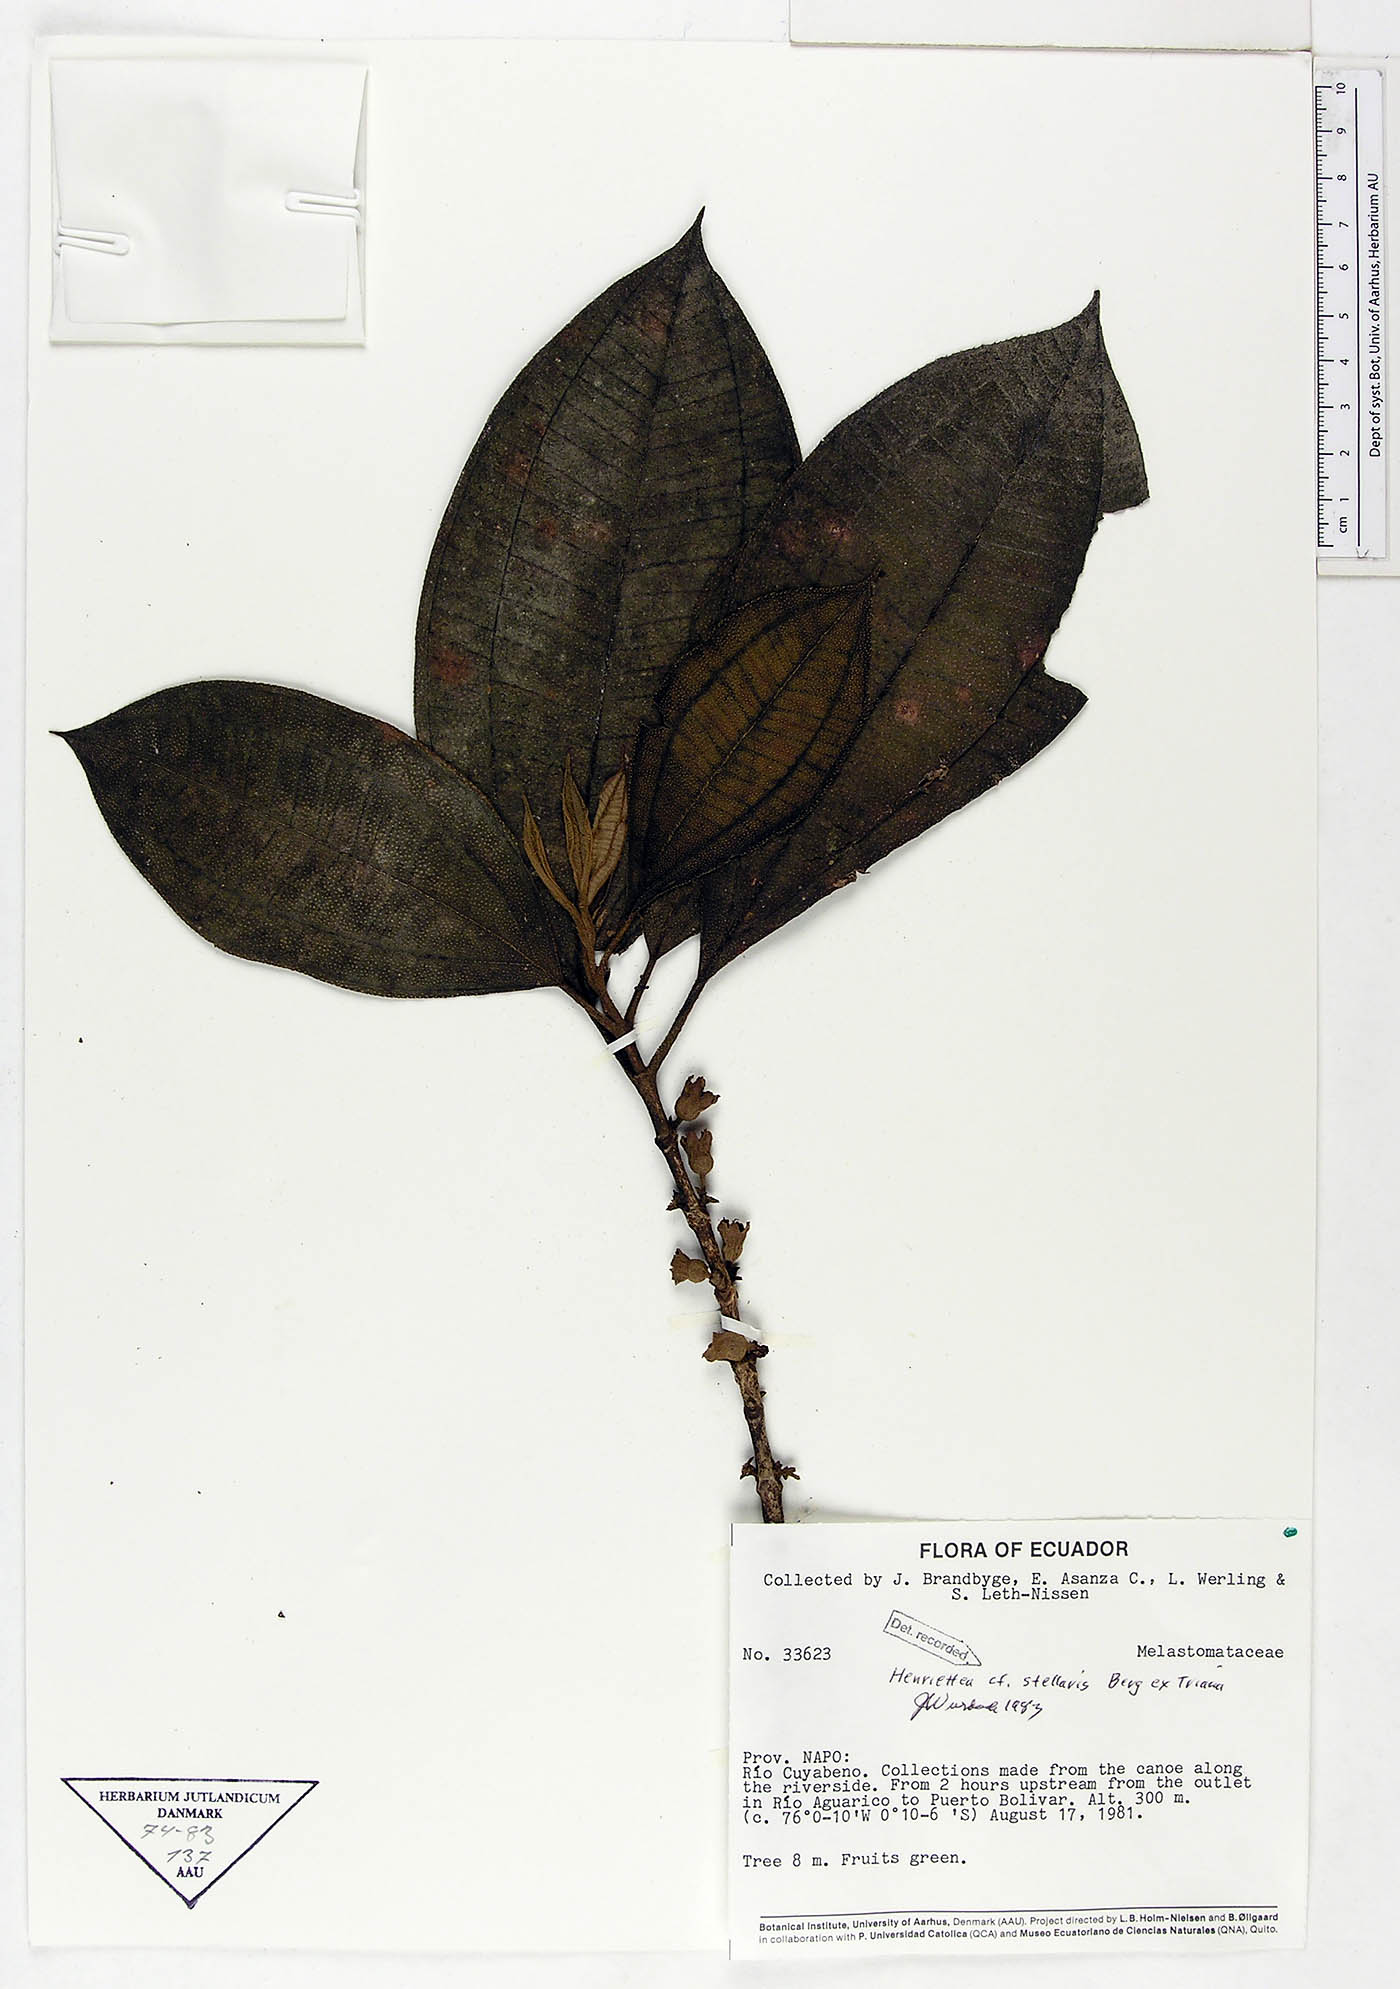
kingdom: Plantae
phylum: Tracheophyta
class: Magnoliopsida
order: Myrtales
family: Melastomataceae
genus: Henriettea
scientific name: Henriettea stellaris
